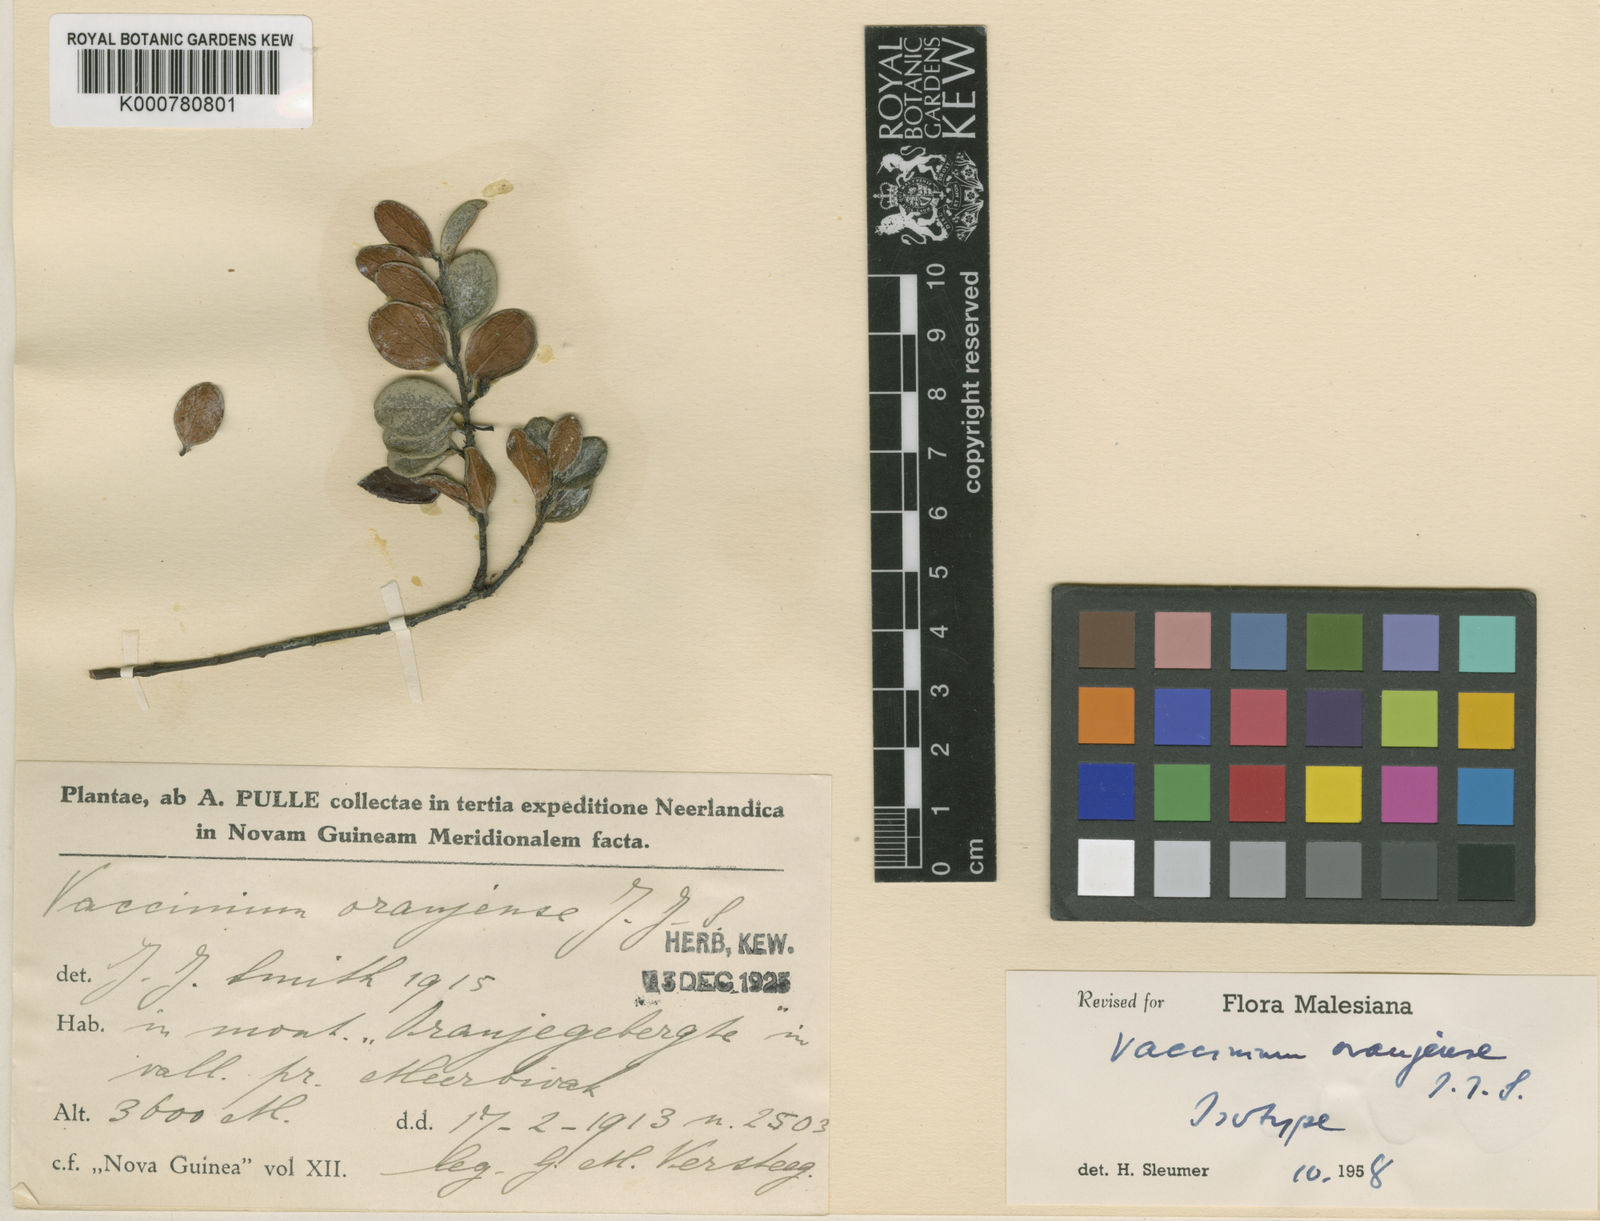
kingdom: Plantae
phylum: Tracheophyta
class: Magnoliopsida
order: Ericales
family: Ericaceae
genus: Vaccinium
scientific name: Vaccinium oranjense
